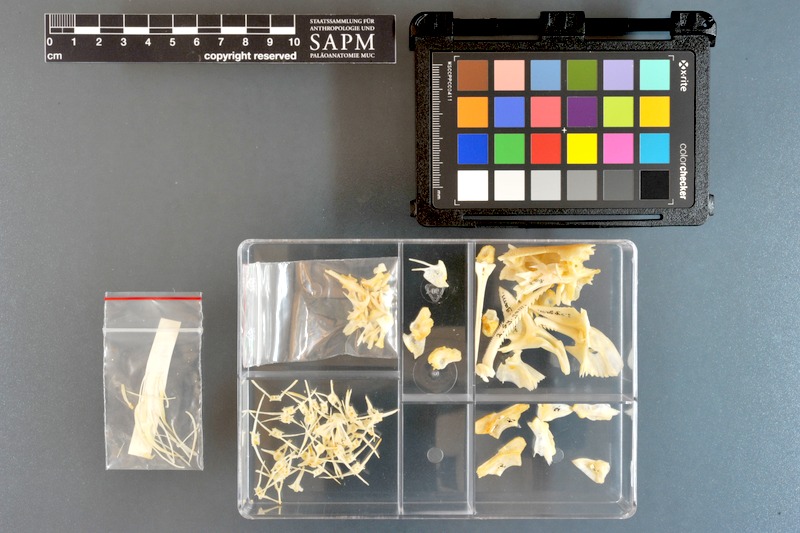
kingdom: Animalia
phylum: Chordata
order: Siluriformes
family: Mochokidae
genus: Synodontis
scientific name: Synodontis schall
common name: Wahrindi
